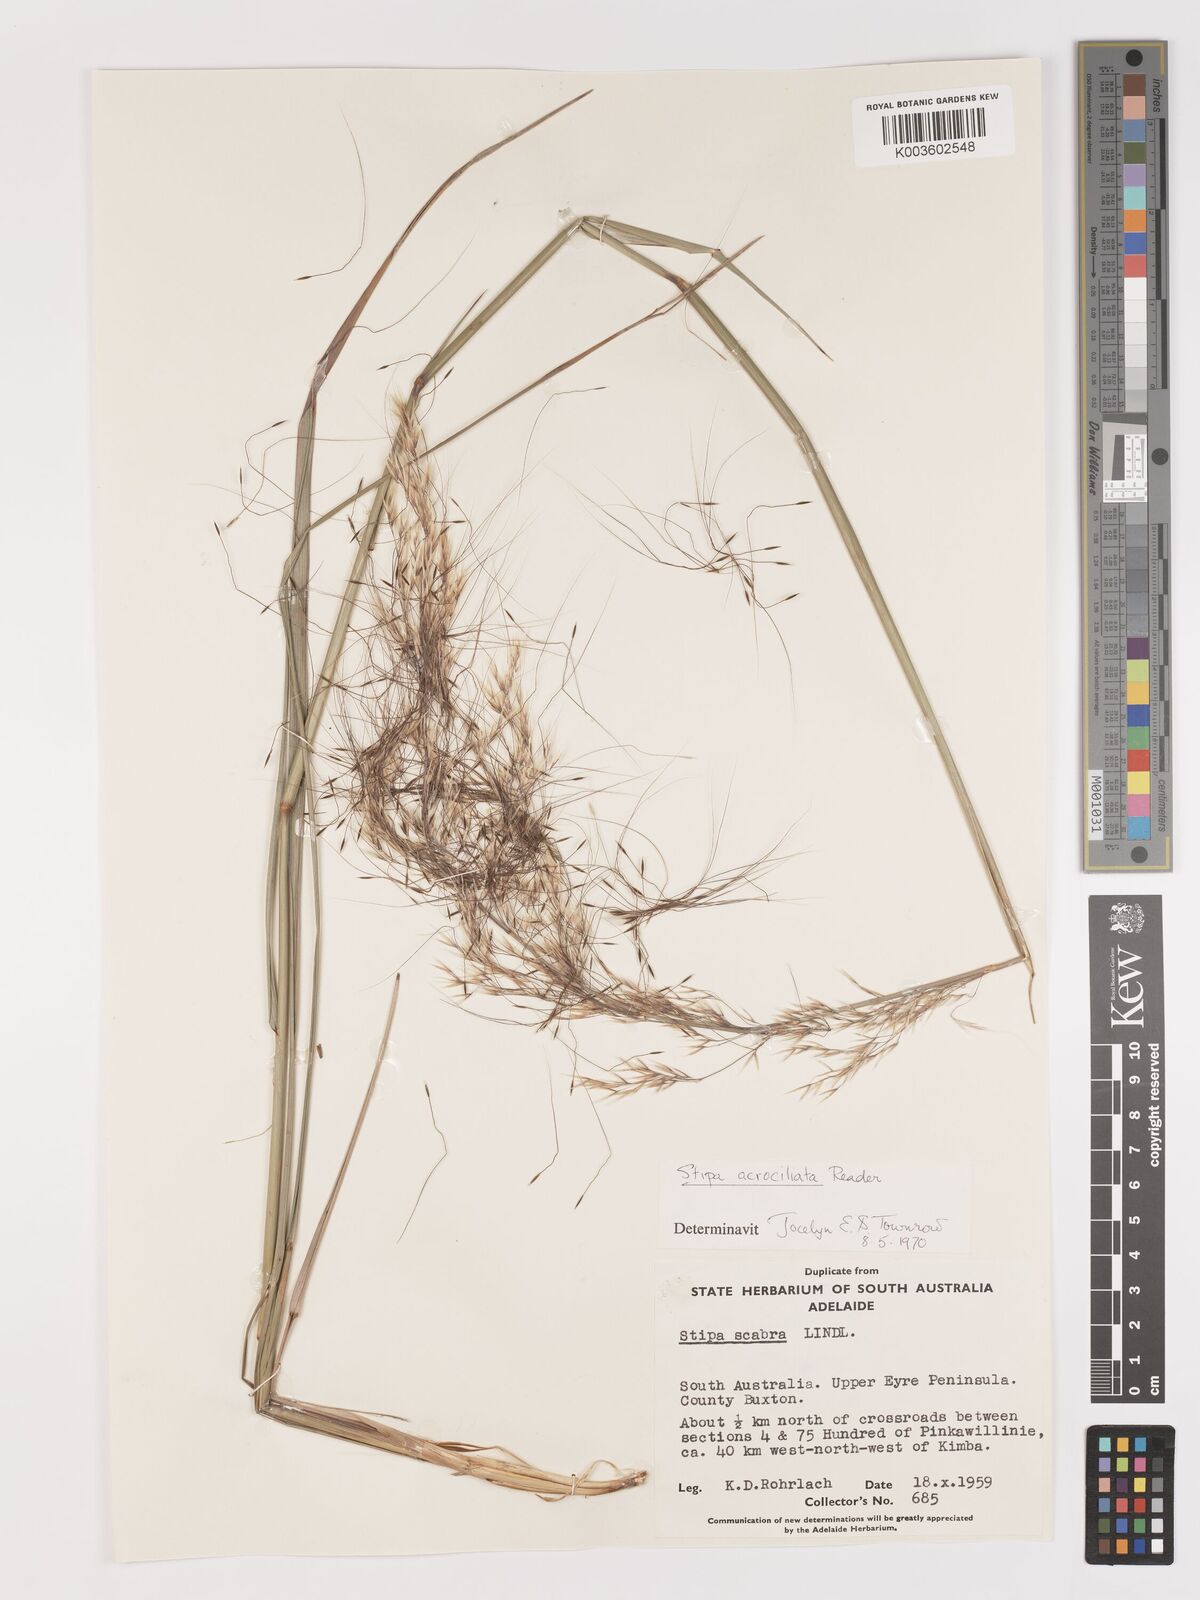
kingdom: Plantae
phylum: Tracheophyta
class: Liliopsida
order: Poales
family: Poaceae
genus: Austrostipa
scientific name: Austrostipa acrociliata
